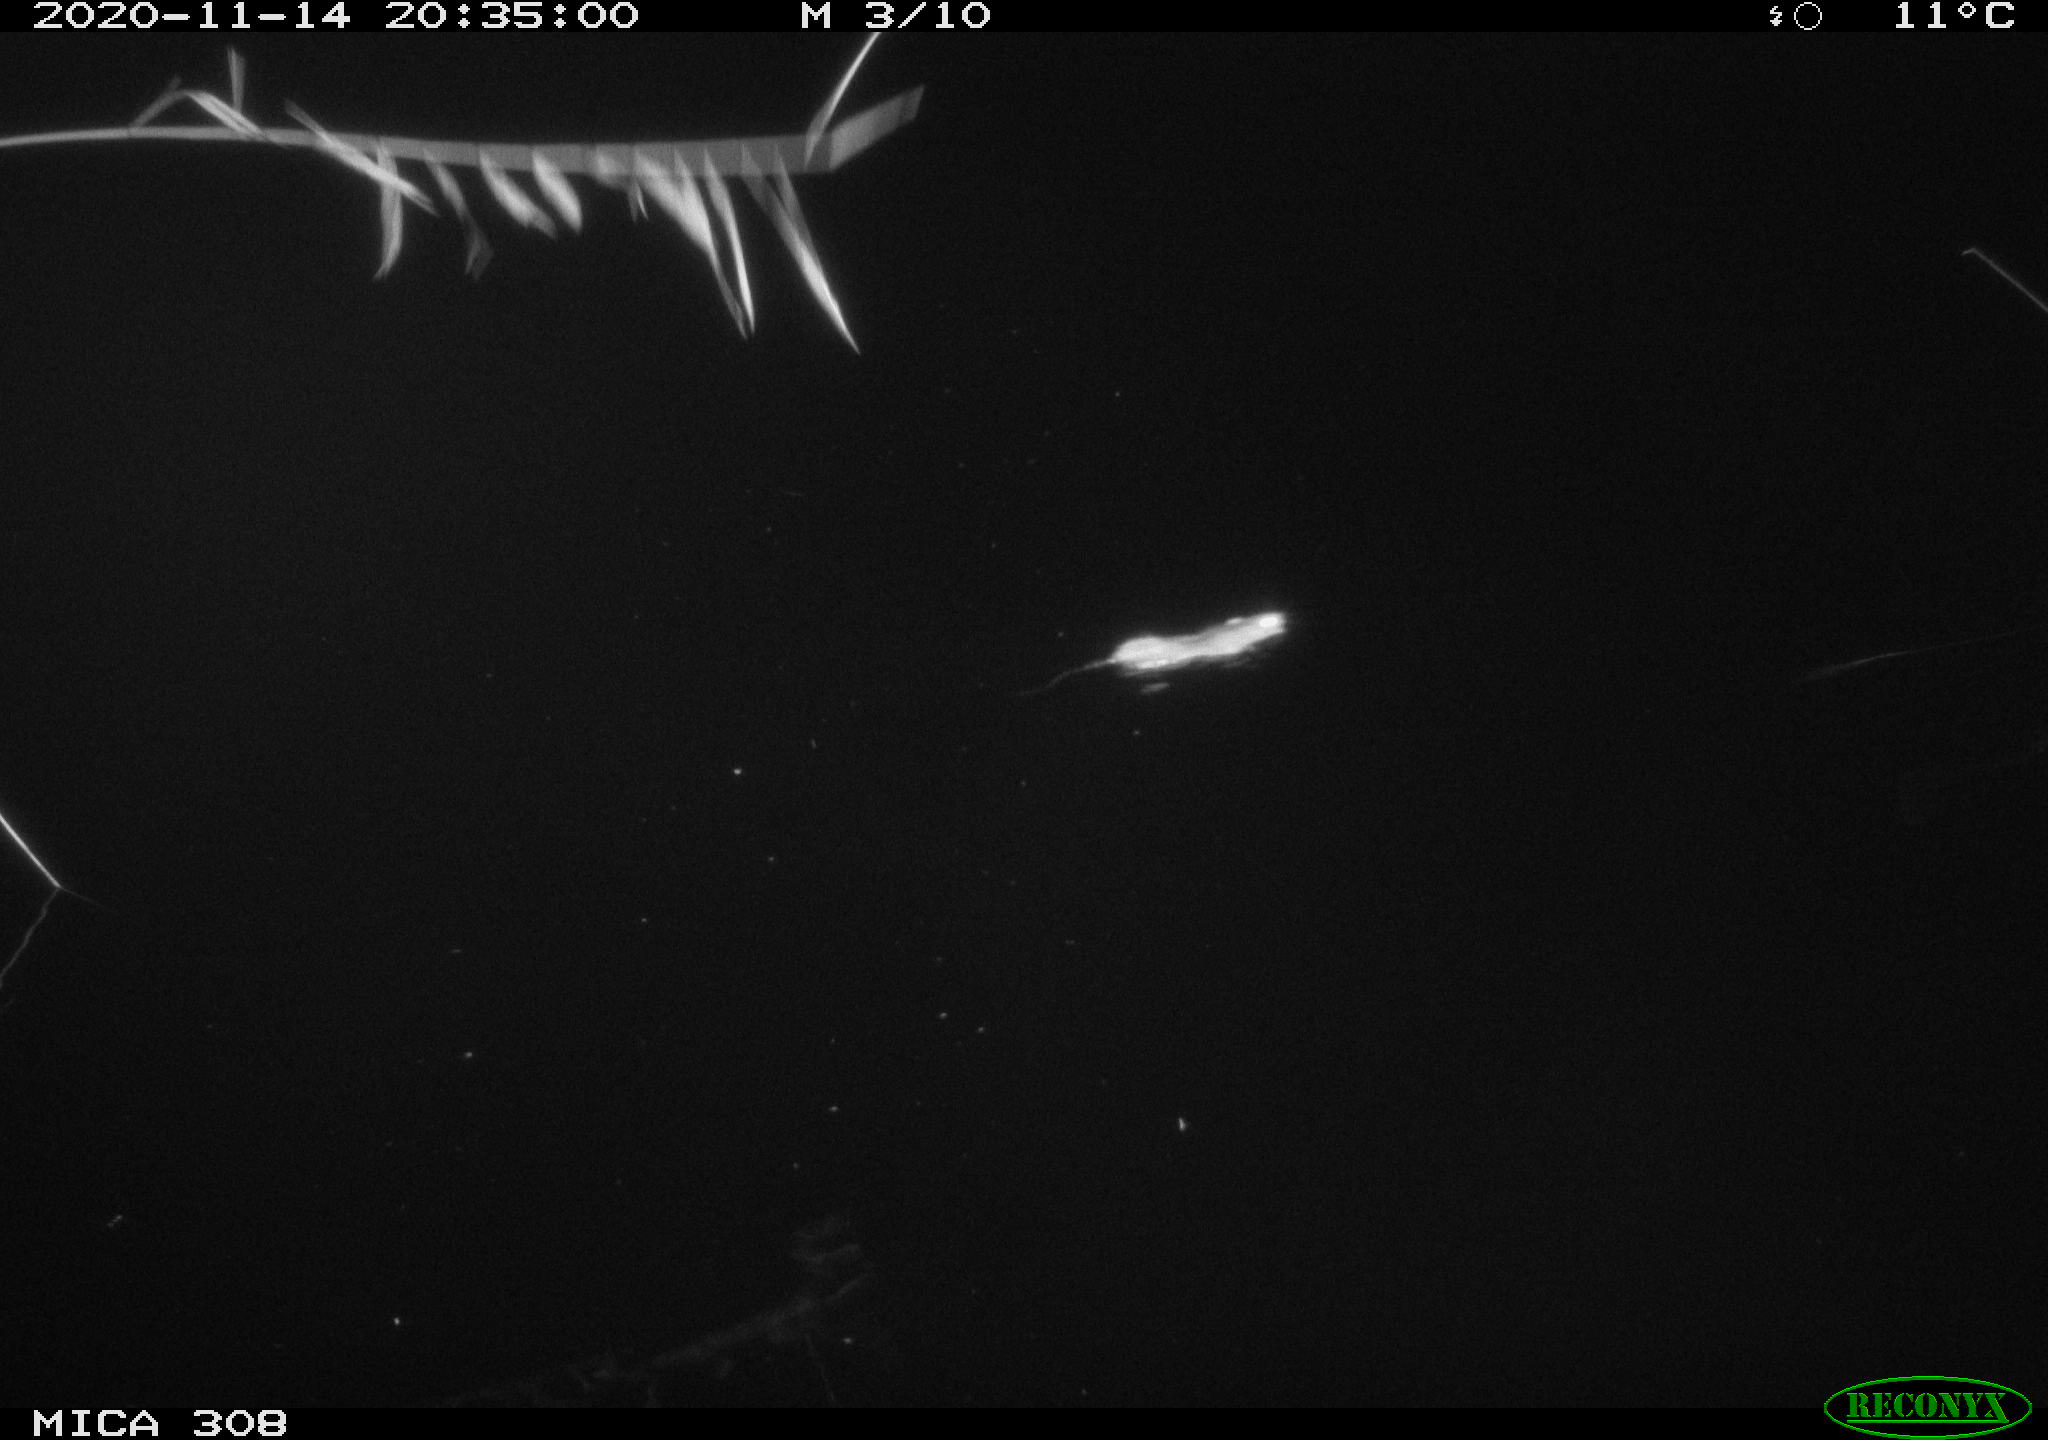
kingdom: Animalia
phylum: Chordata
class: Mammalia
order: Rodentia
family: Muridae
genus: Rattus
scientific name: Rattus norvegicus
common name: Brown rat
